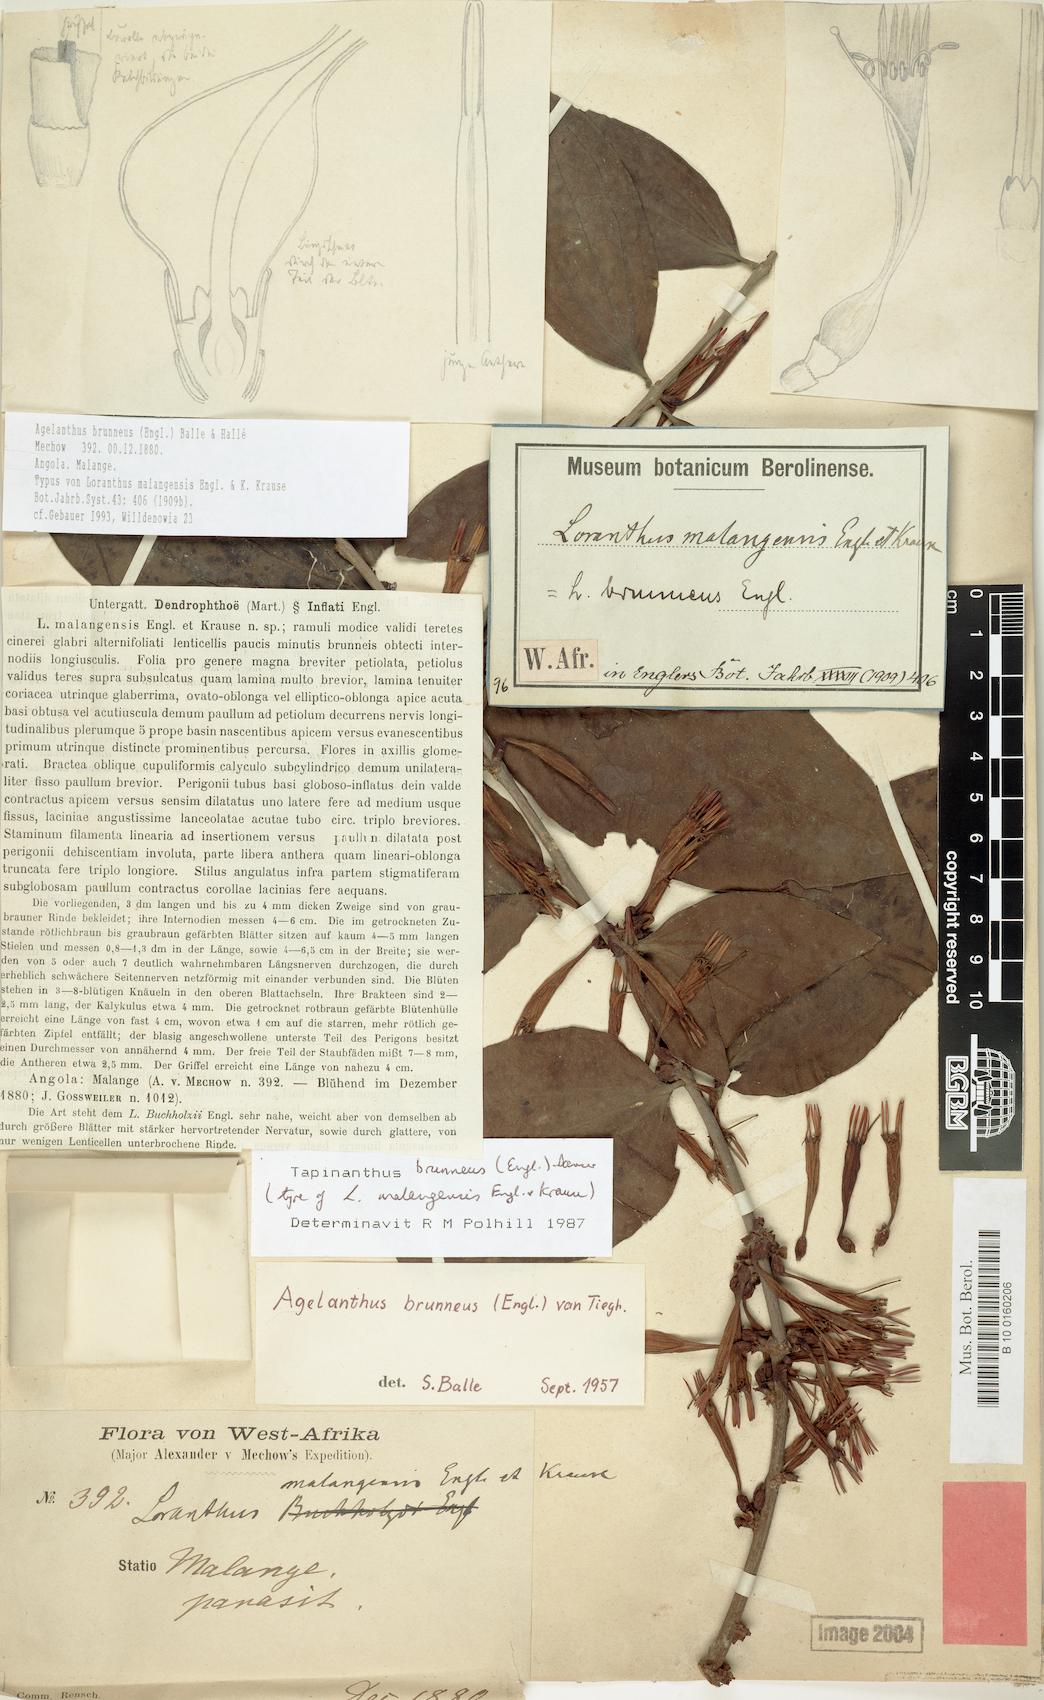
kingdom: Plantae
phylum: Tracheophyta
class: Magnoliopsida
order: Santalales
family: Loranthaceae
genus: Agelanthus
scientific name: Agelanthus brunneus
